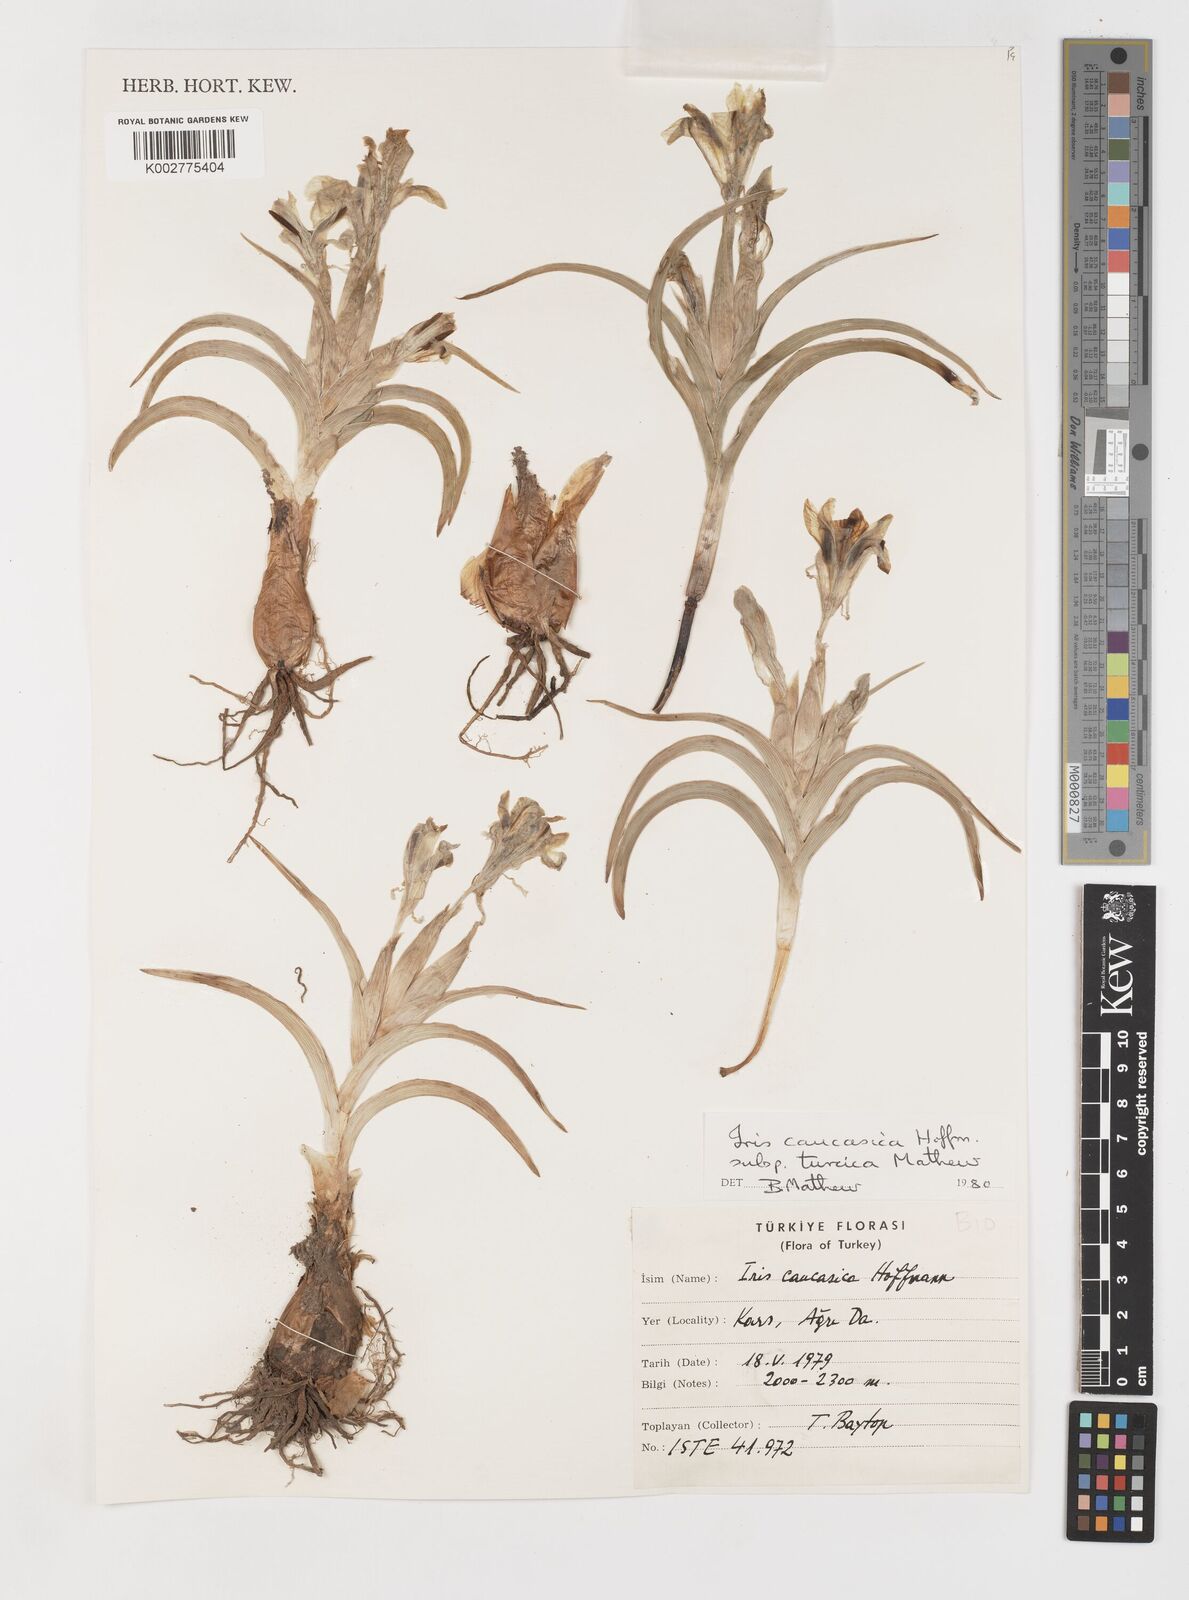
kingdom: Plantae
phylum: Tracheophyta
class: Liliopsida
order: Asparagales
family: Iridaceae
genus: Iris
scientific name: Iris caucasica
